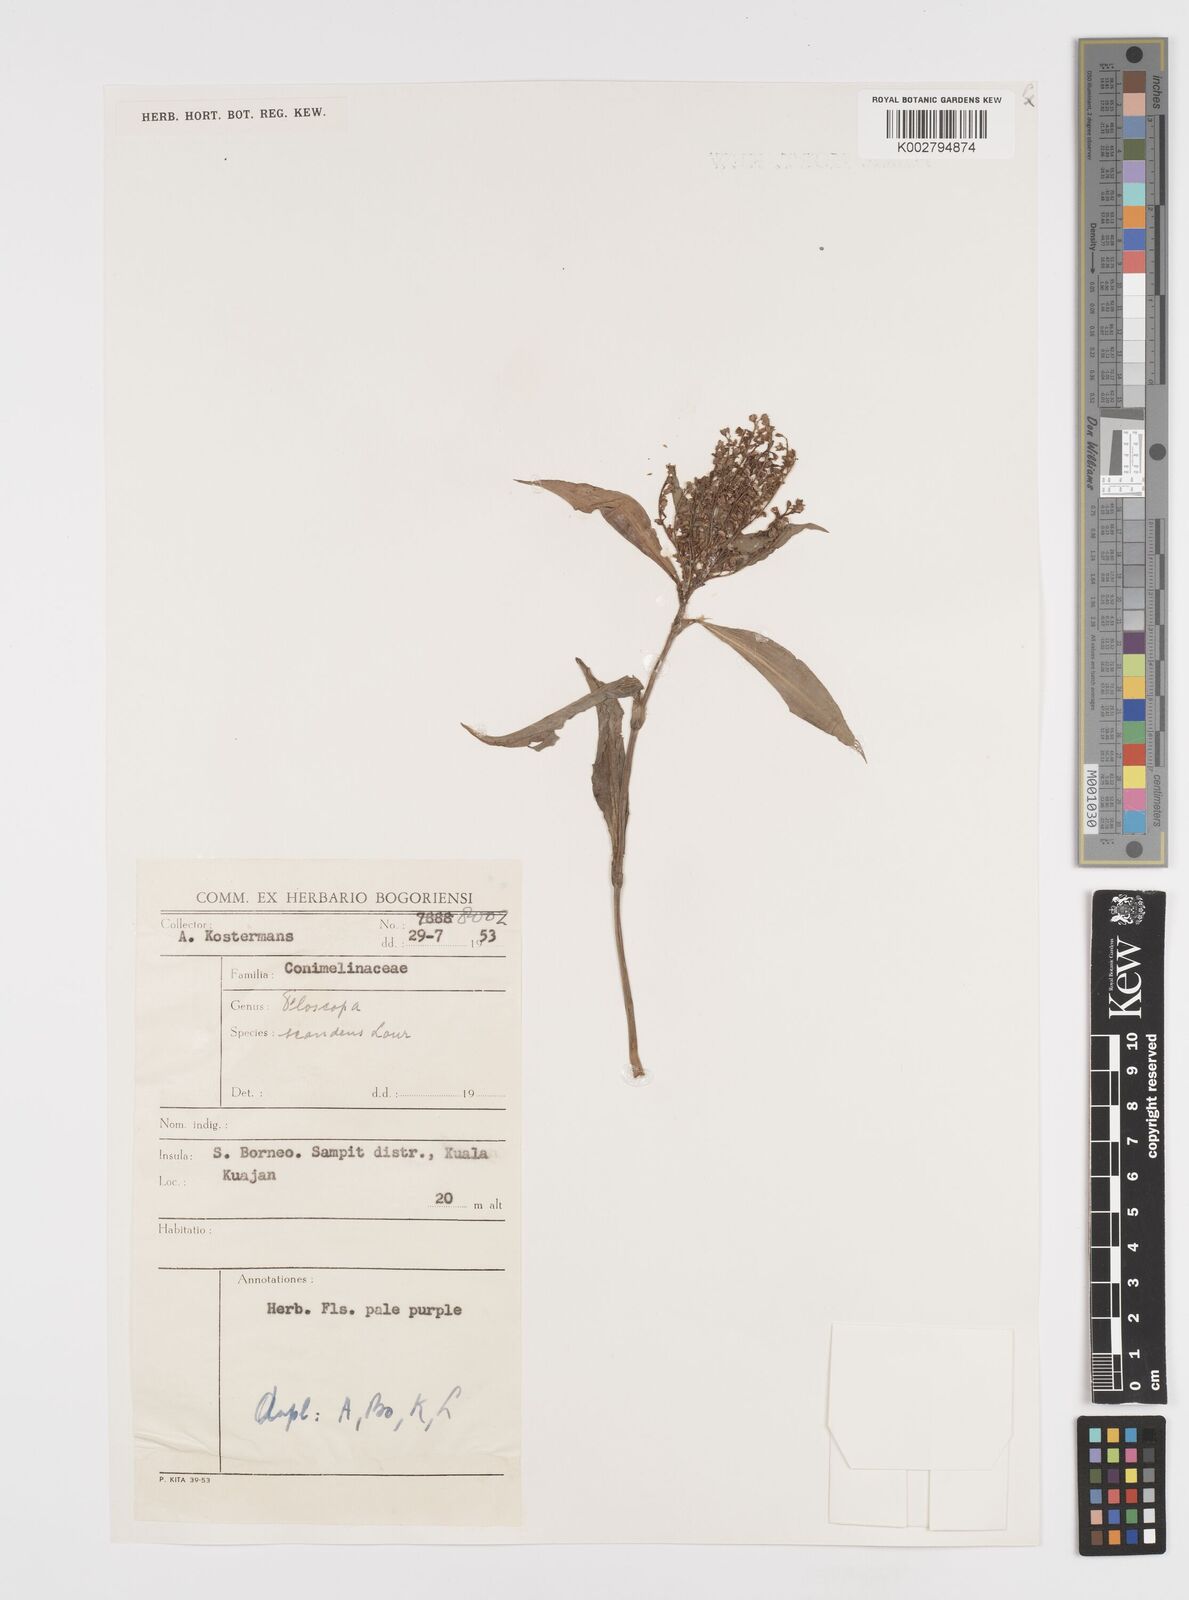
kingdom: Plantae
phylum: Tracheophyta
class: Liliopsida
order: Commelinales
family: Commelinaceae
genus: Floscopa
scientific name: Floscopa scandens
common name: Climbing flower cup
